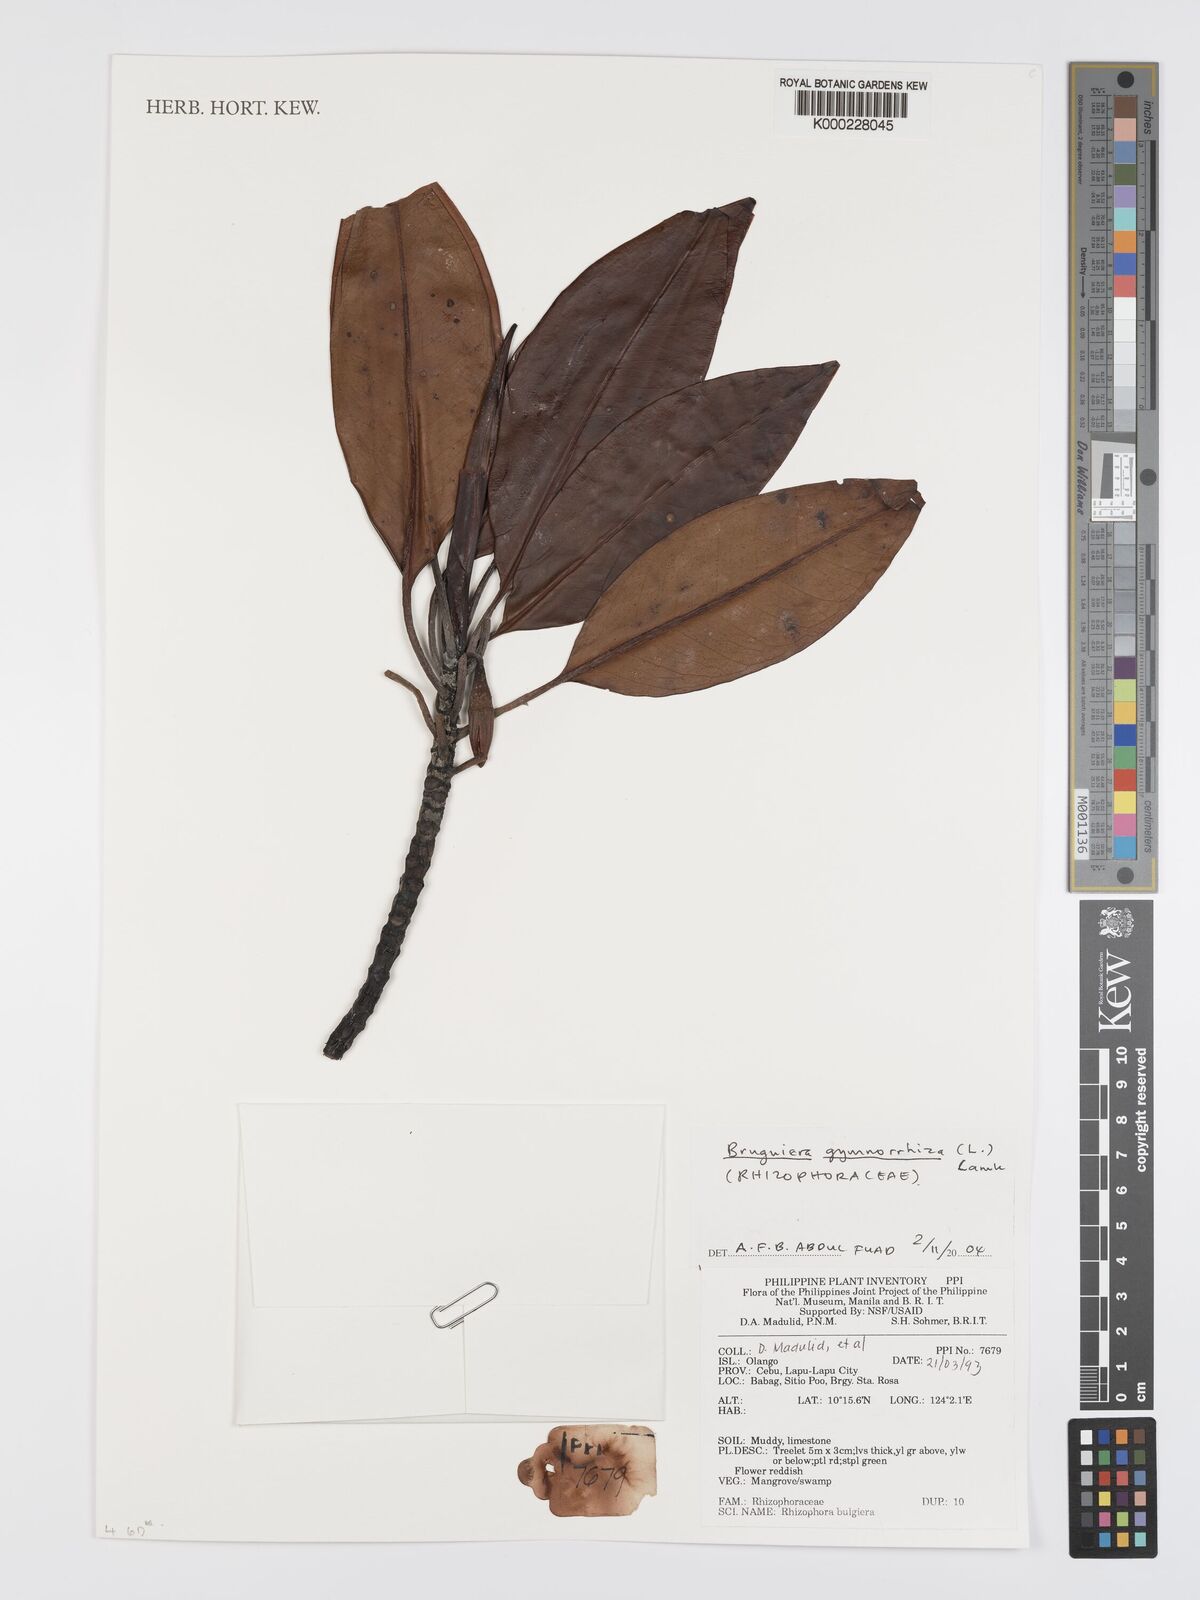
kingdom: Plantae
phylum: Tracheophyta
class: Magnoliopsida
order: Malpighiales
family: Rhizophoraceae
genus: Bruguiera
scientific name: Bruguiera gymnorhiza
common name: Oriental mangrove
